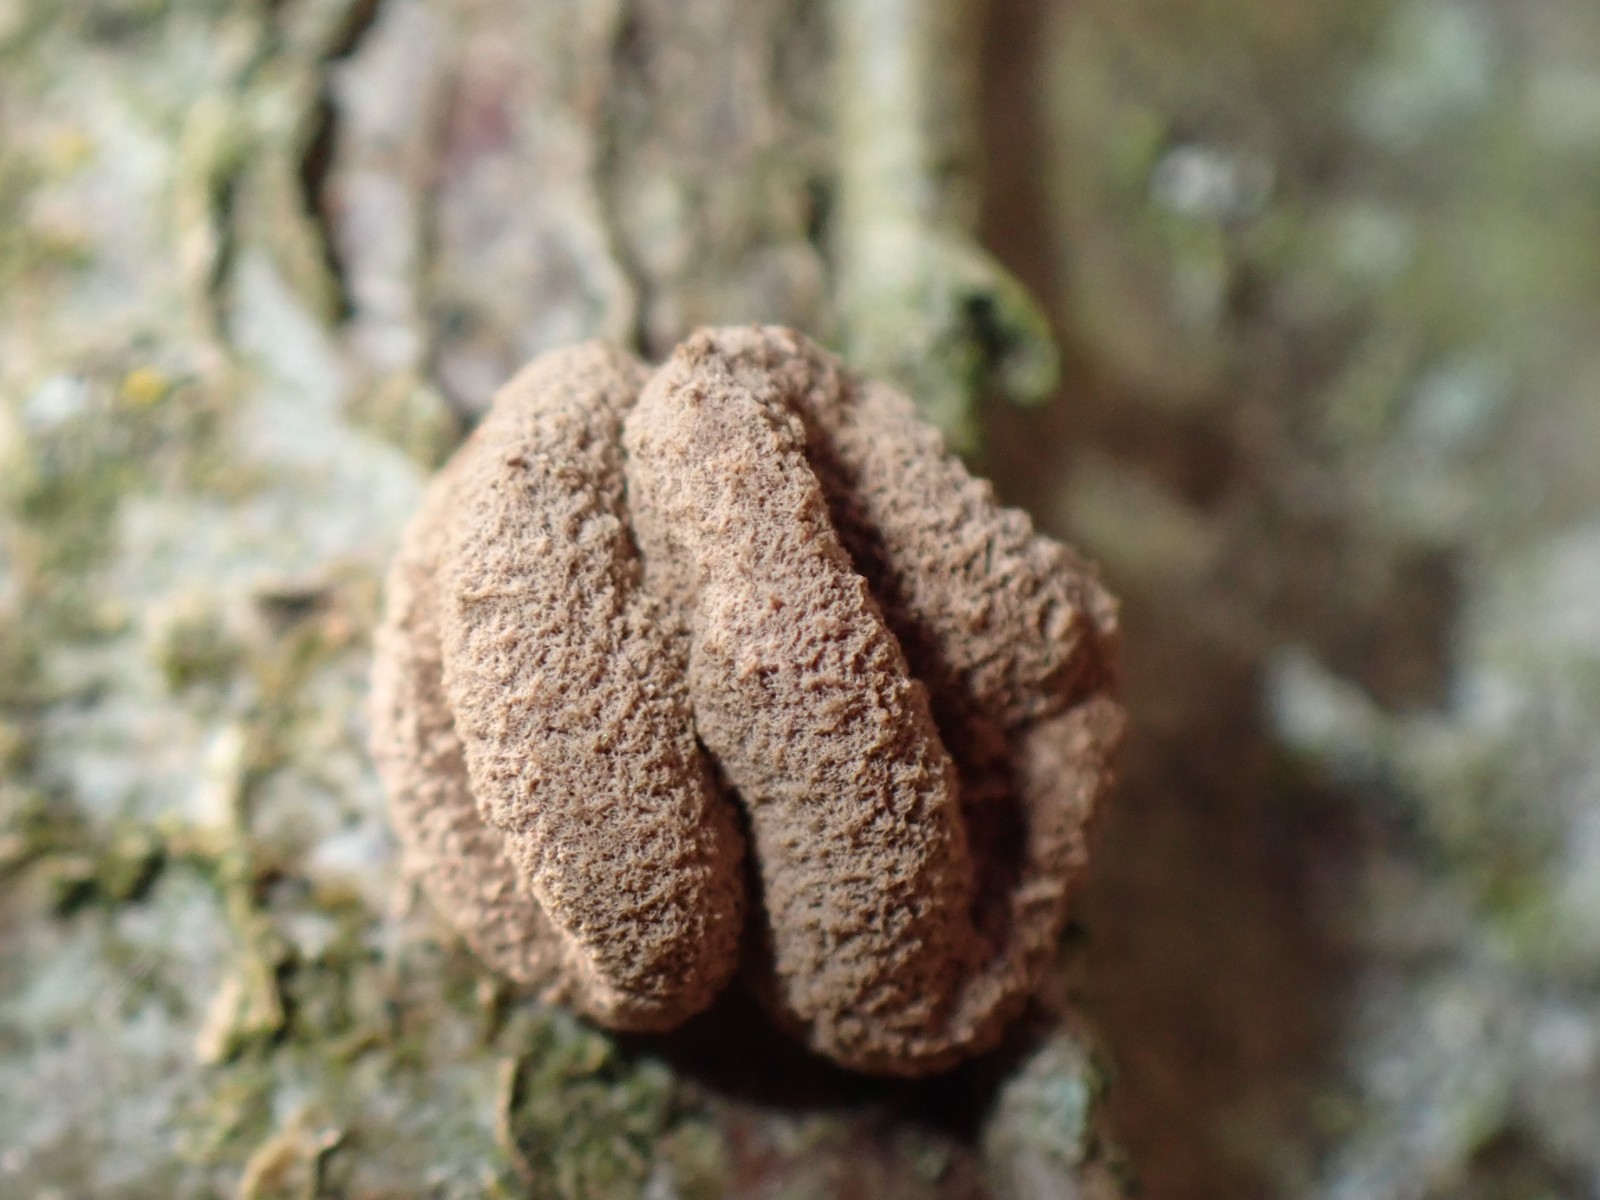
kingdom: Fungi
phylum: Ascomycota
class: Leotiomycetes
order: Helotiales
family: Cenangiaceae
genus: Encoelia
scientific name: Encoelia furfuracea
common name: hassel-læderskive
